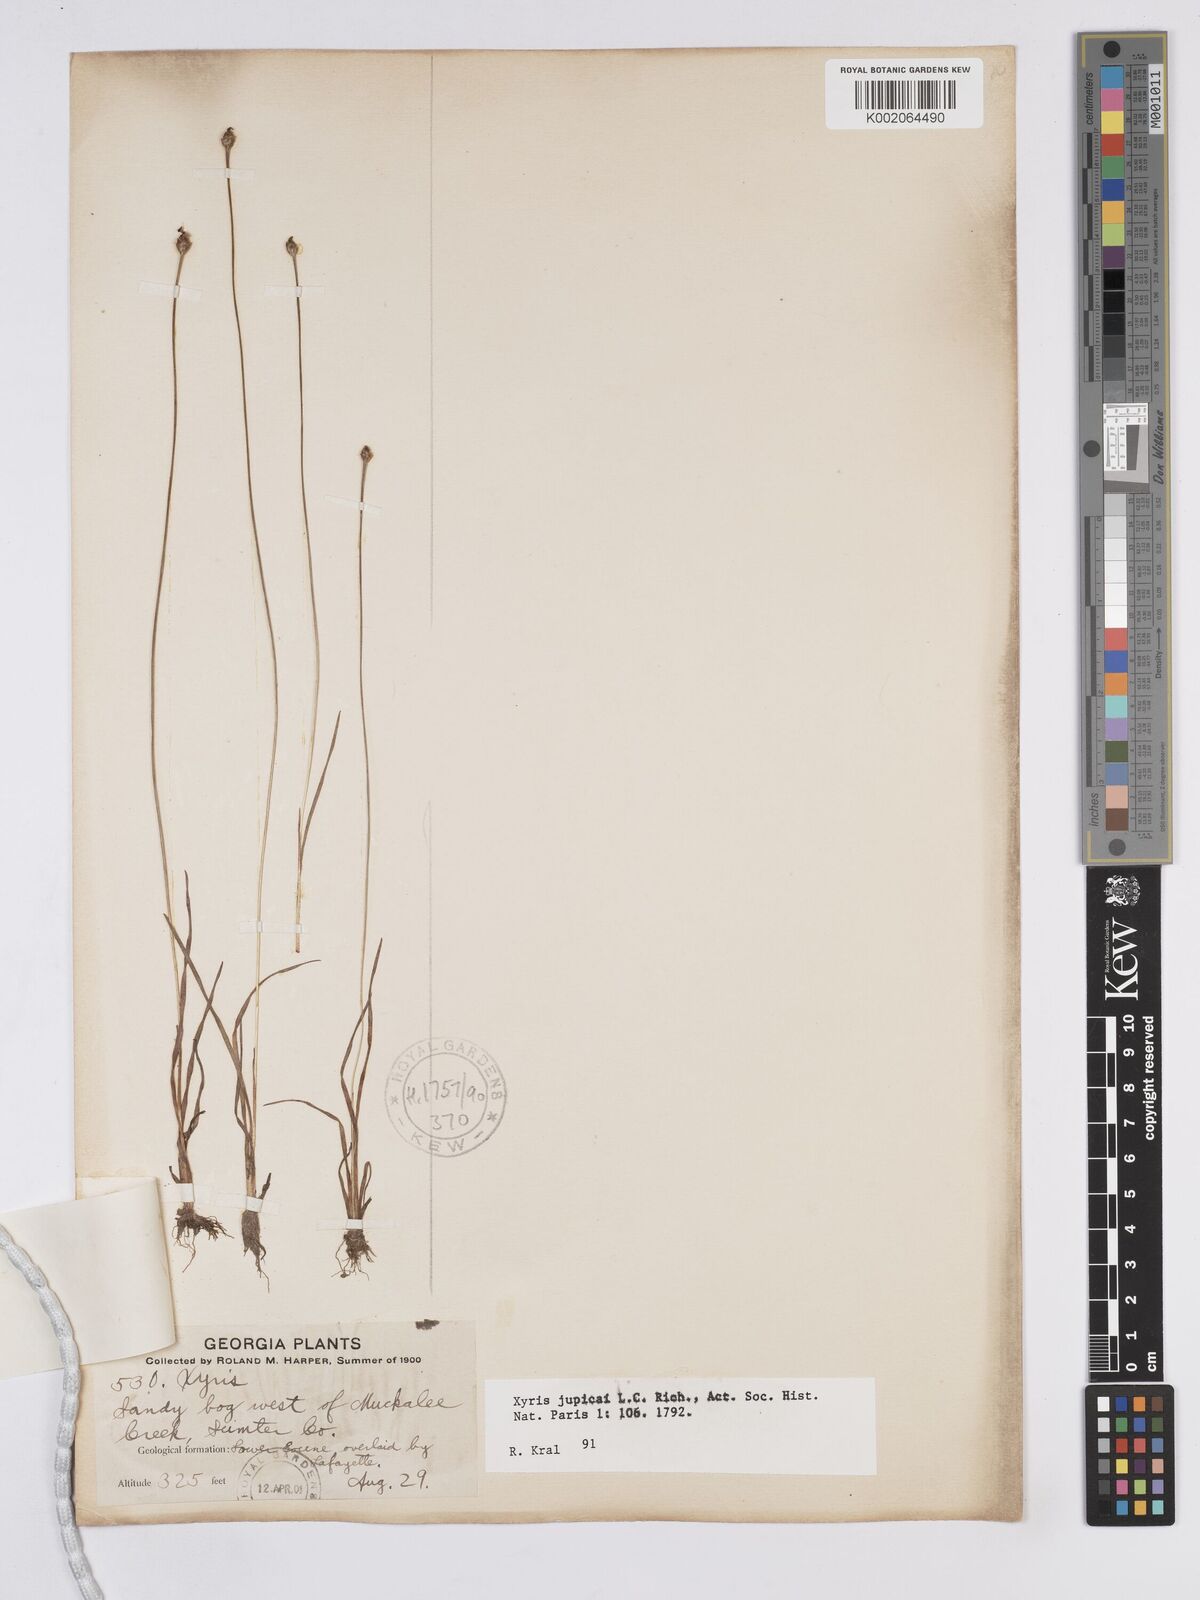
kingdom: Plantae
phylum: Tracheophyta
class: Liliopsida
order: Poales
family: Xyridaceae
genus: Xyris
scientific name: Xyris jupicai
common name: Richard's yelloweyed grass
